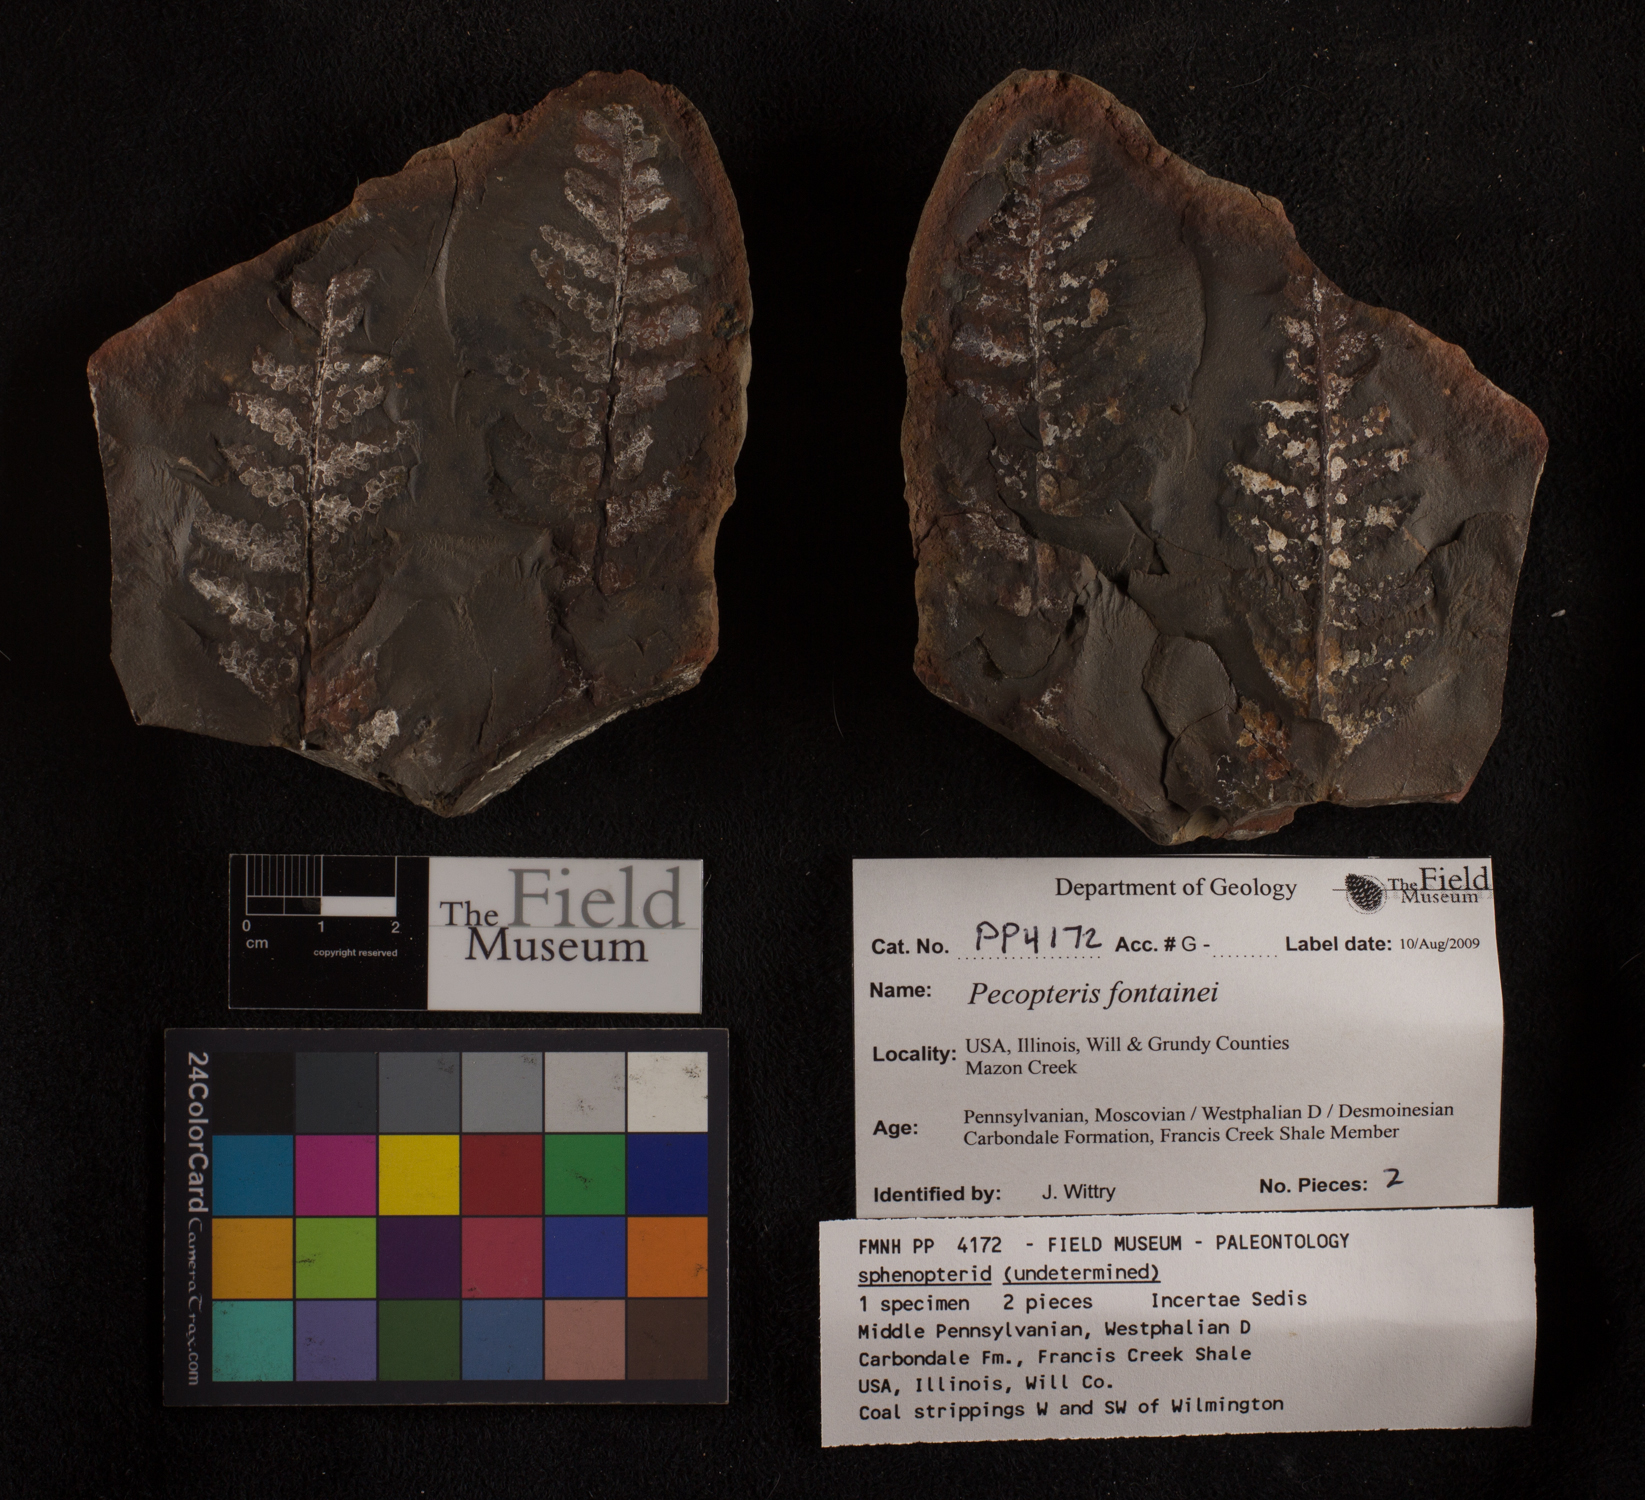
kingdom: Plantae
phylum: Tracheophyta
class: Polypodiopsida
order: Marattiales
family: Asterothecaceae
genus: Pecopteris
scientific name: Pecopteris
